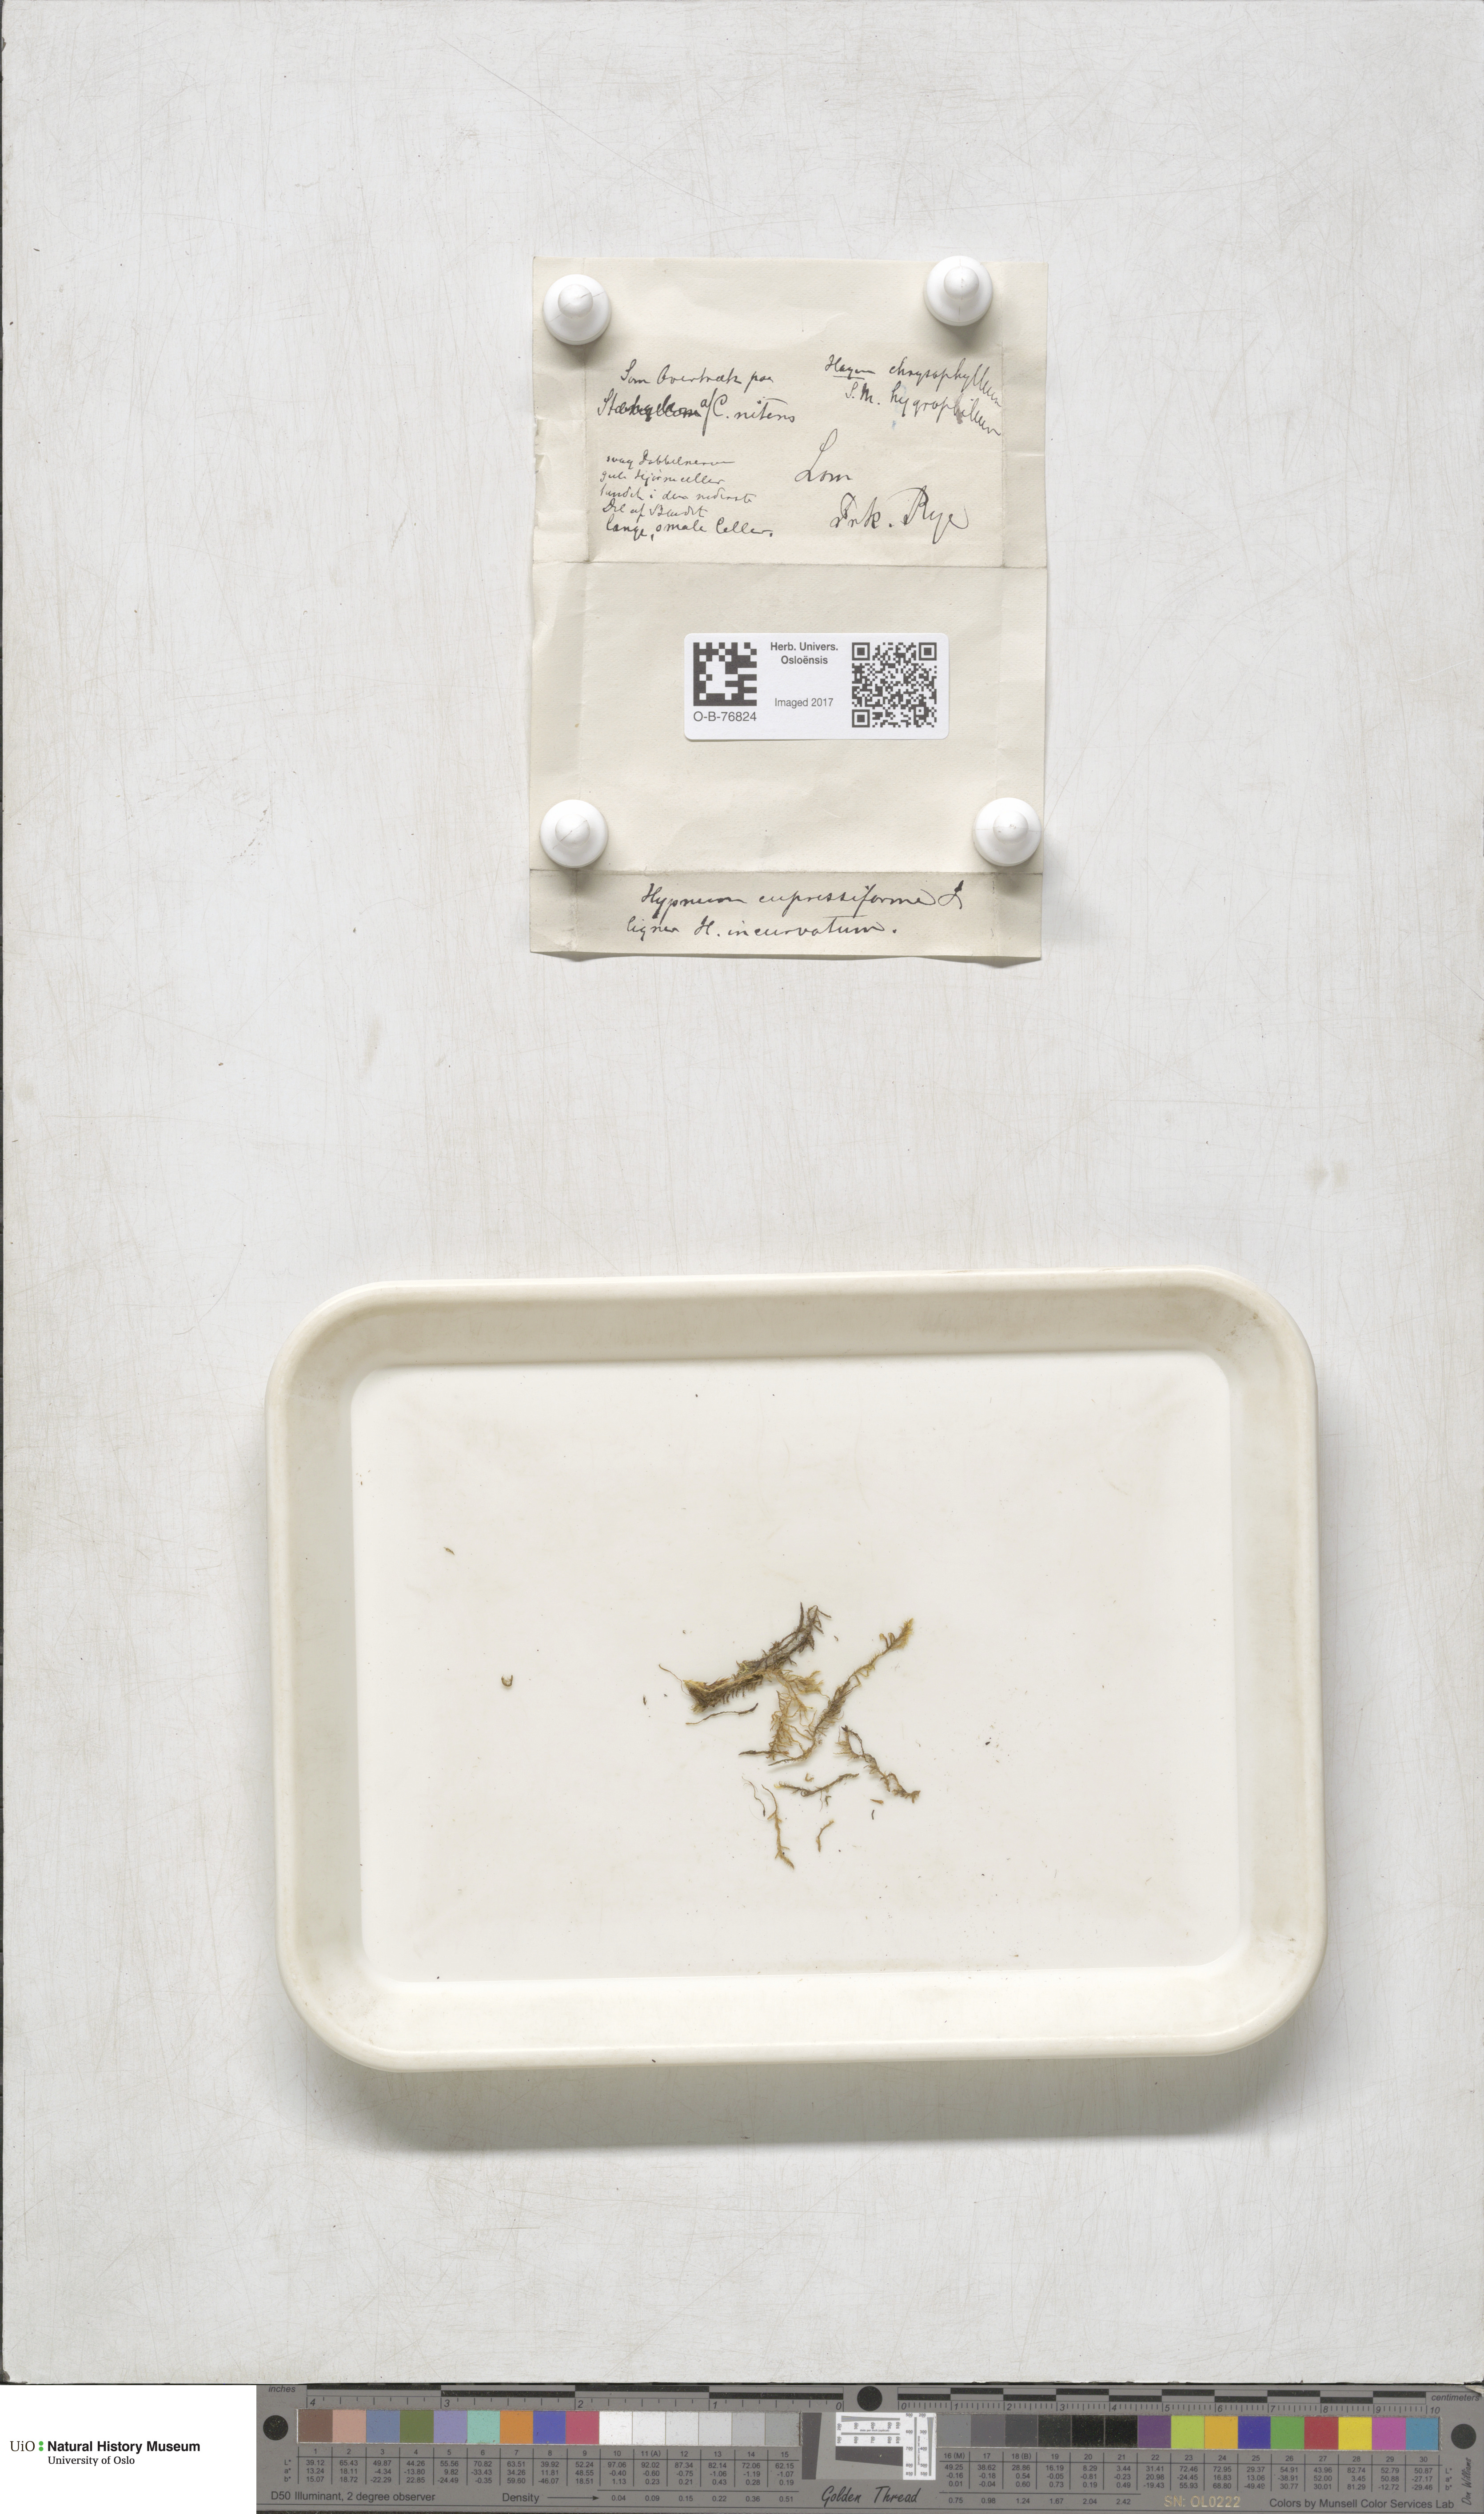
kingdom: Plantae
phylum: Bryophyta
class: Bryopsida
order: Hypnales
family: Hypnaceae
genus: Hypnum
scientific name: Hypnum cupressiforme
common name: Cypress-leaved plait-moss
